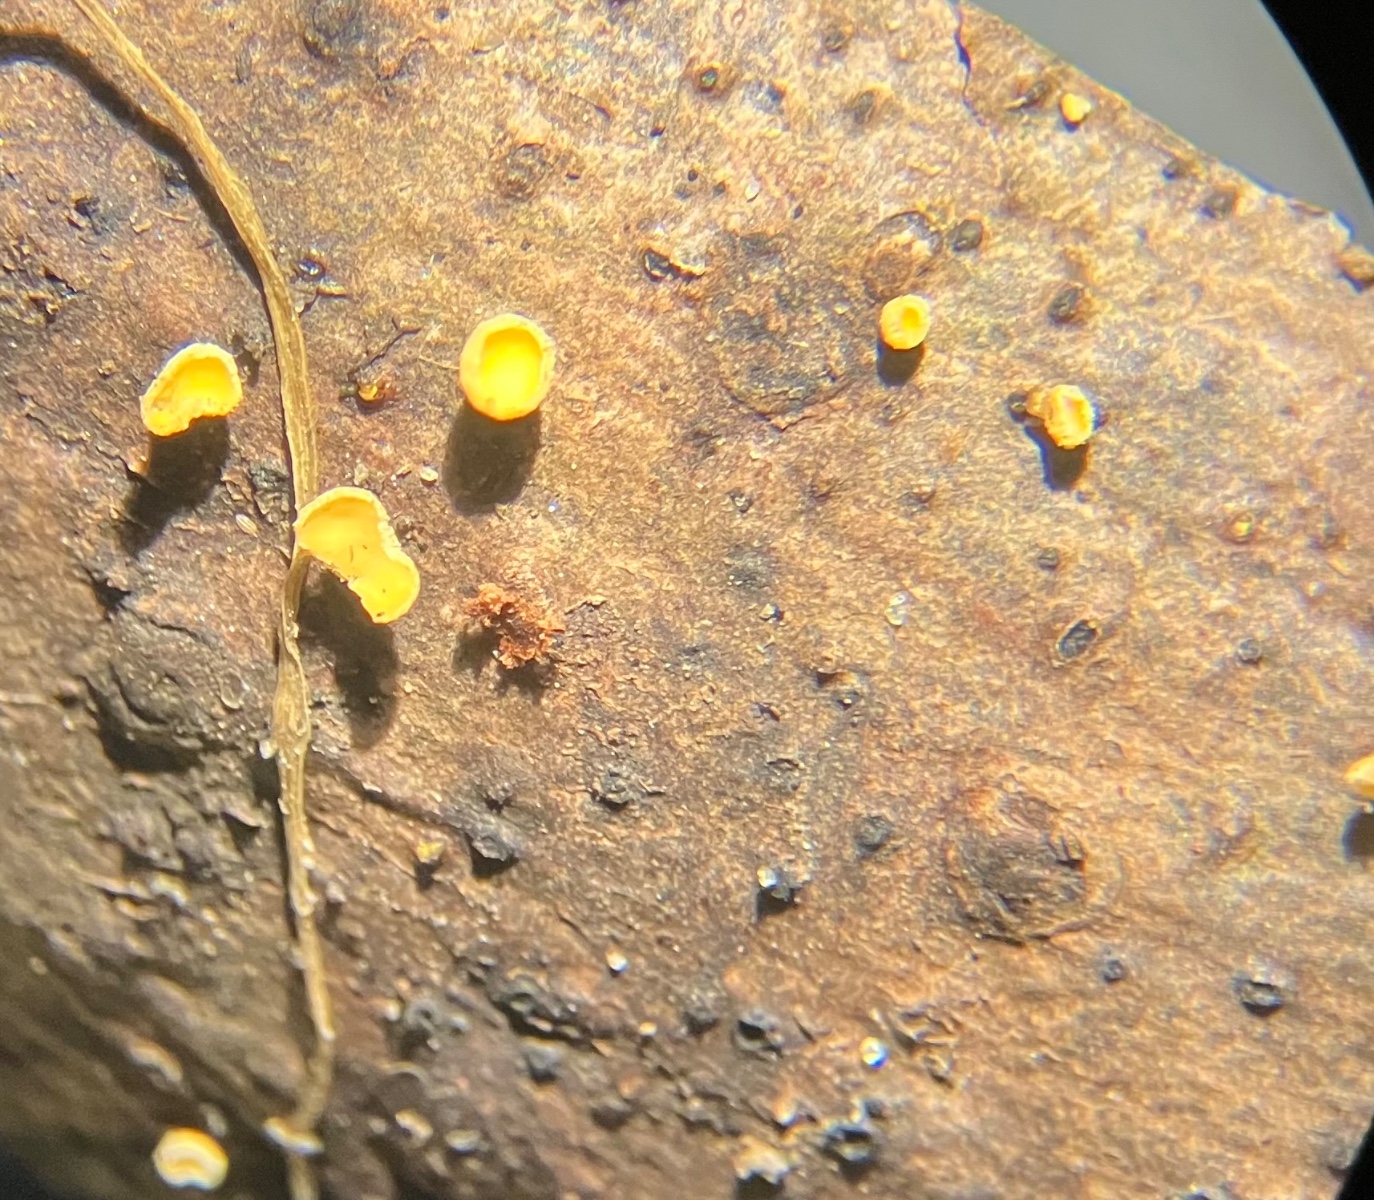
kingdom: Fungi
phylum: Ascomycota
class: Leotiomycetes
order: Helotiales
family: Lachnaceae
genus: Lachnellula
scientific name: Lachnellula subtilissima
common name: gran-frynseskive
